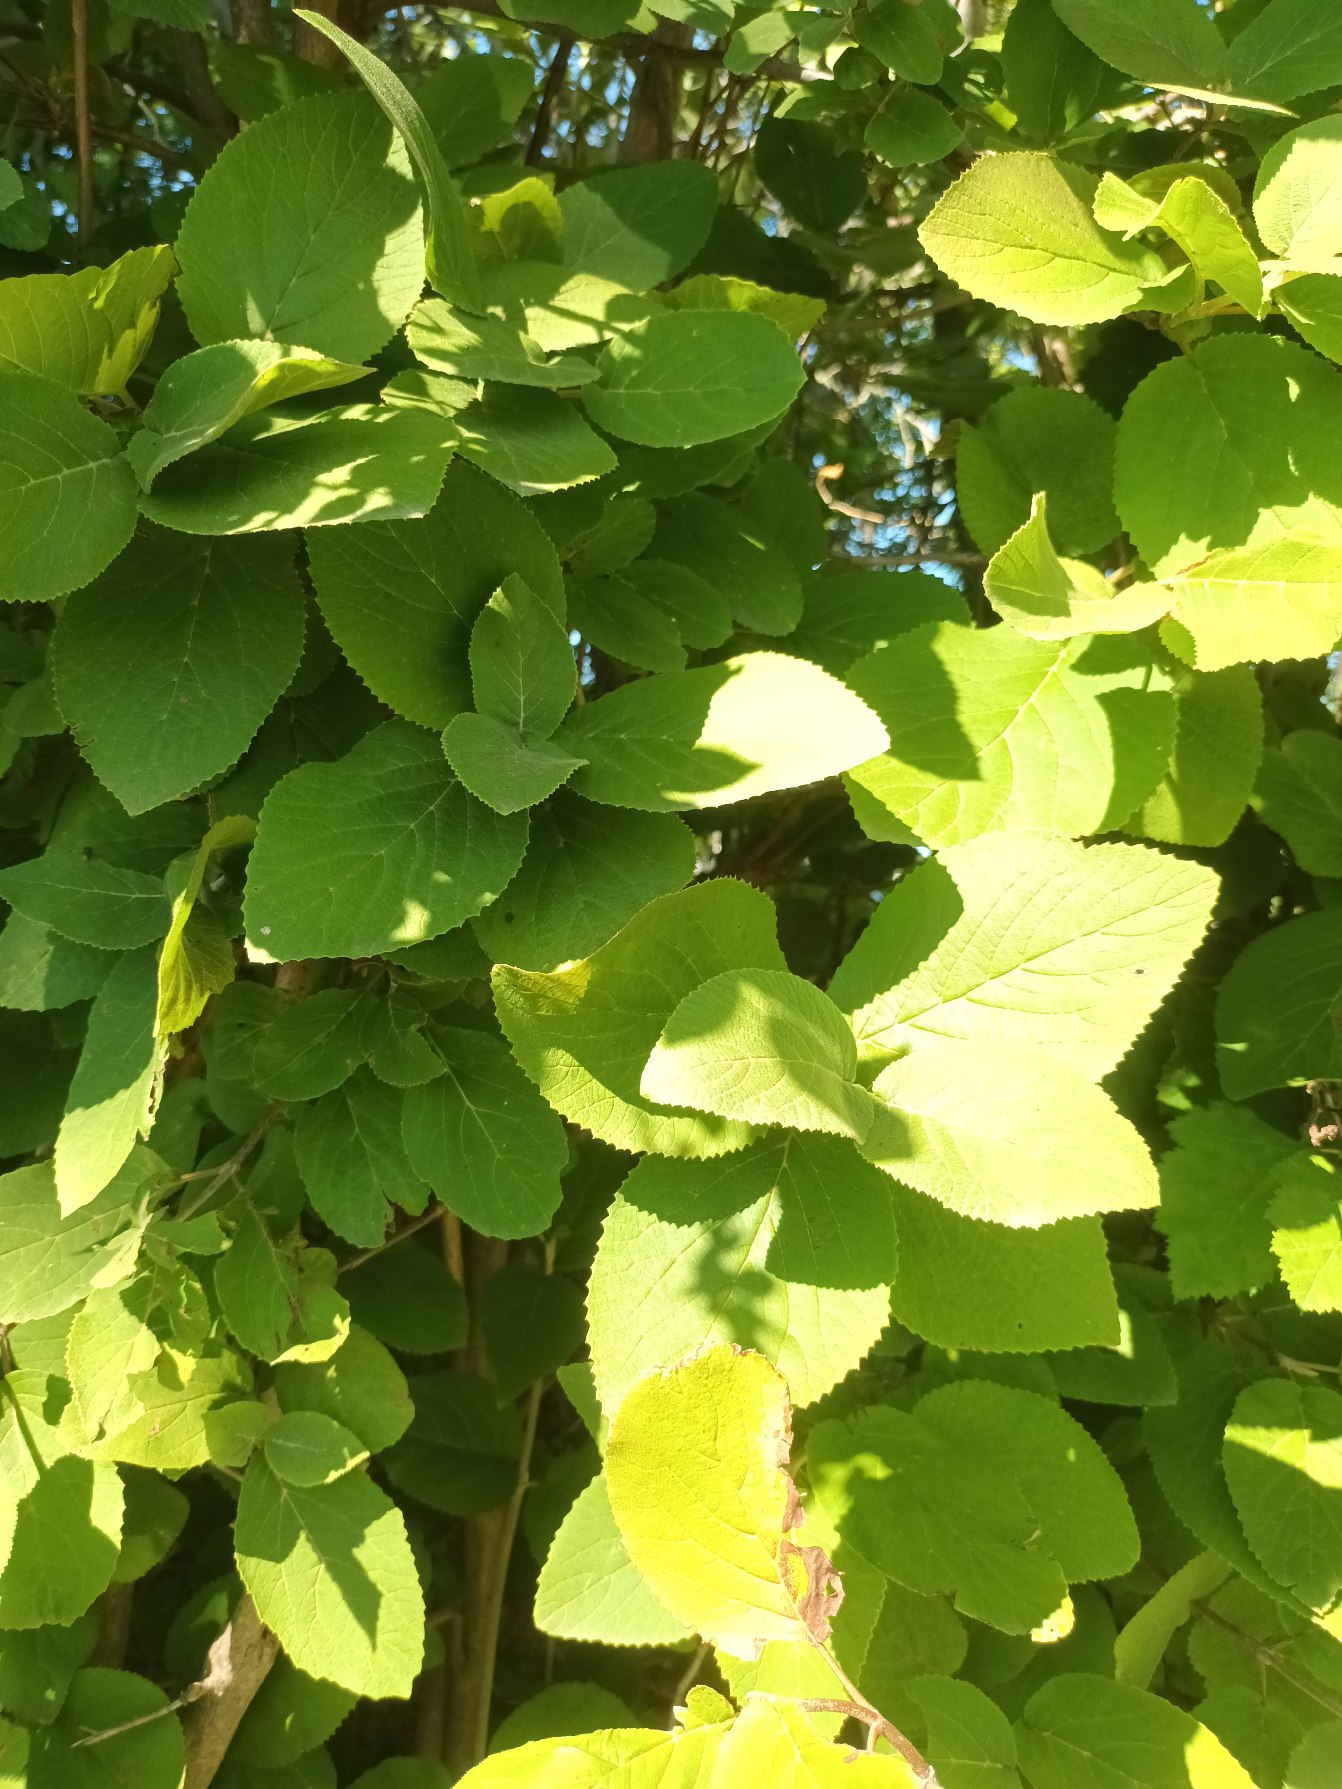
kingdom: Plantae
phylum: Tracheophyta
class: Magnoliopsida
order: Dipsacales
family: Viburnaceae
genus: Viburnum
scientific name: Viburnum lantana
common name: Pibe-kvalkved
